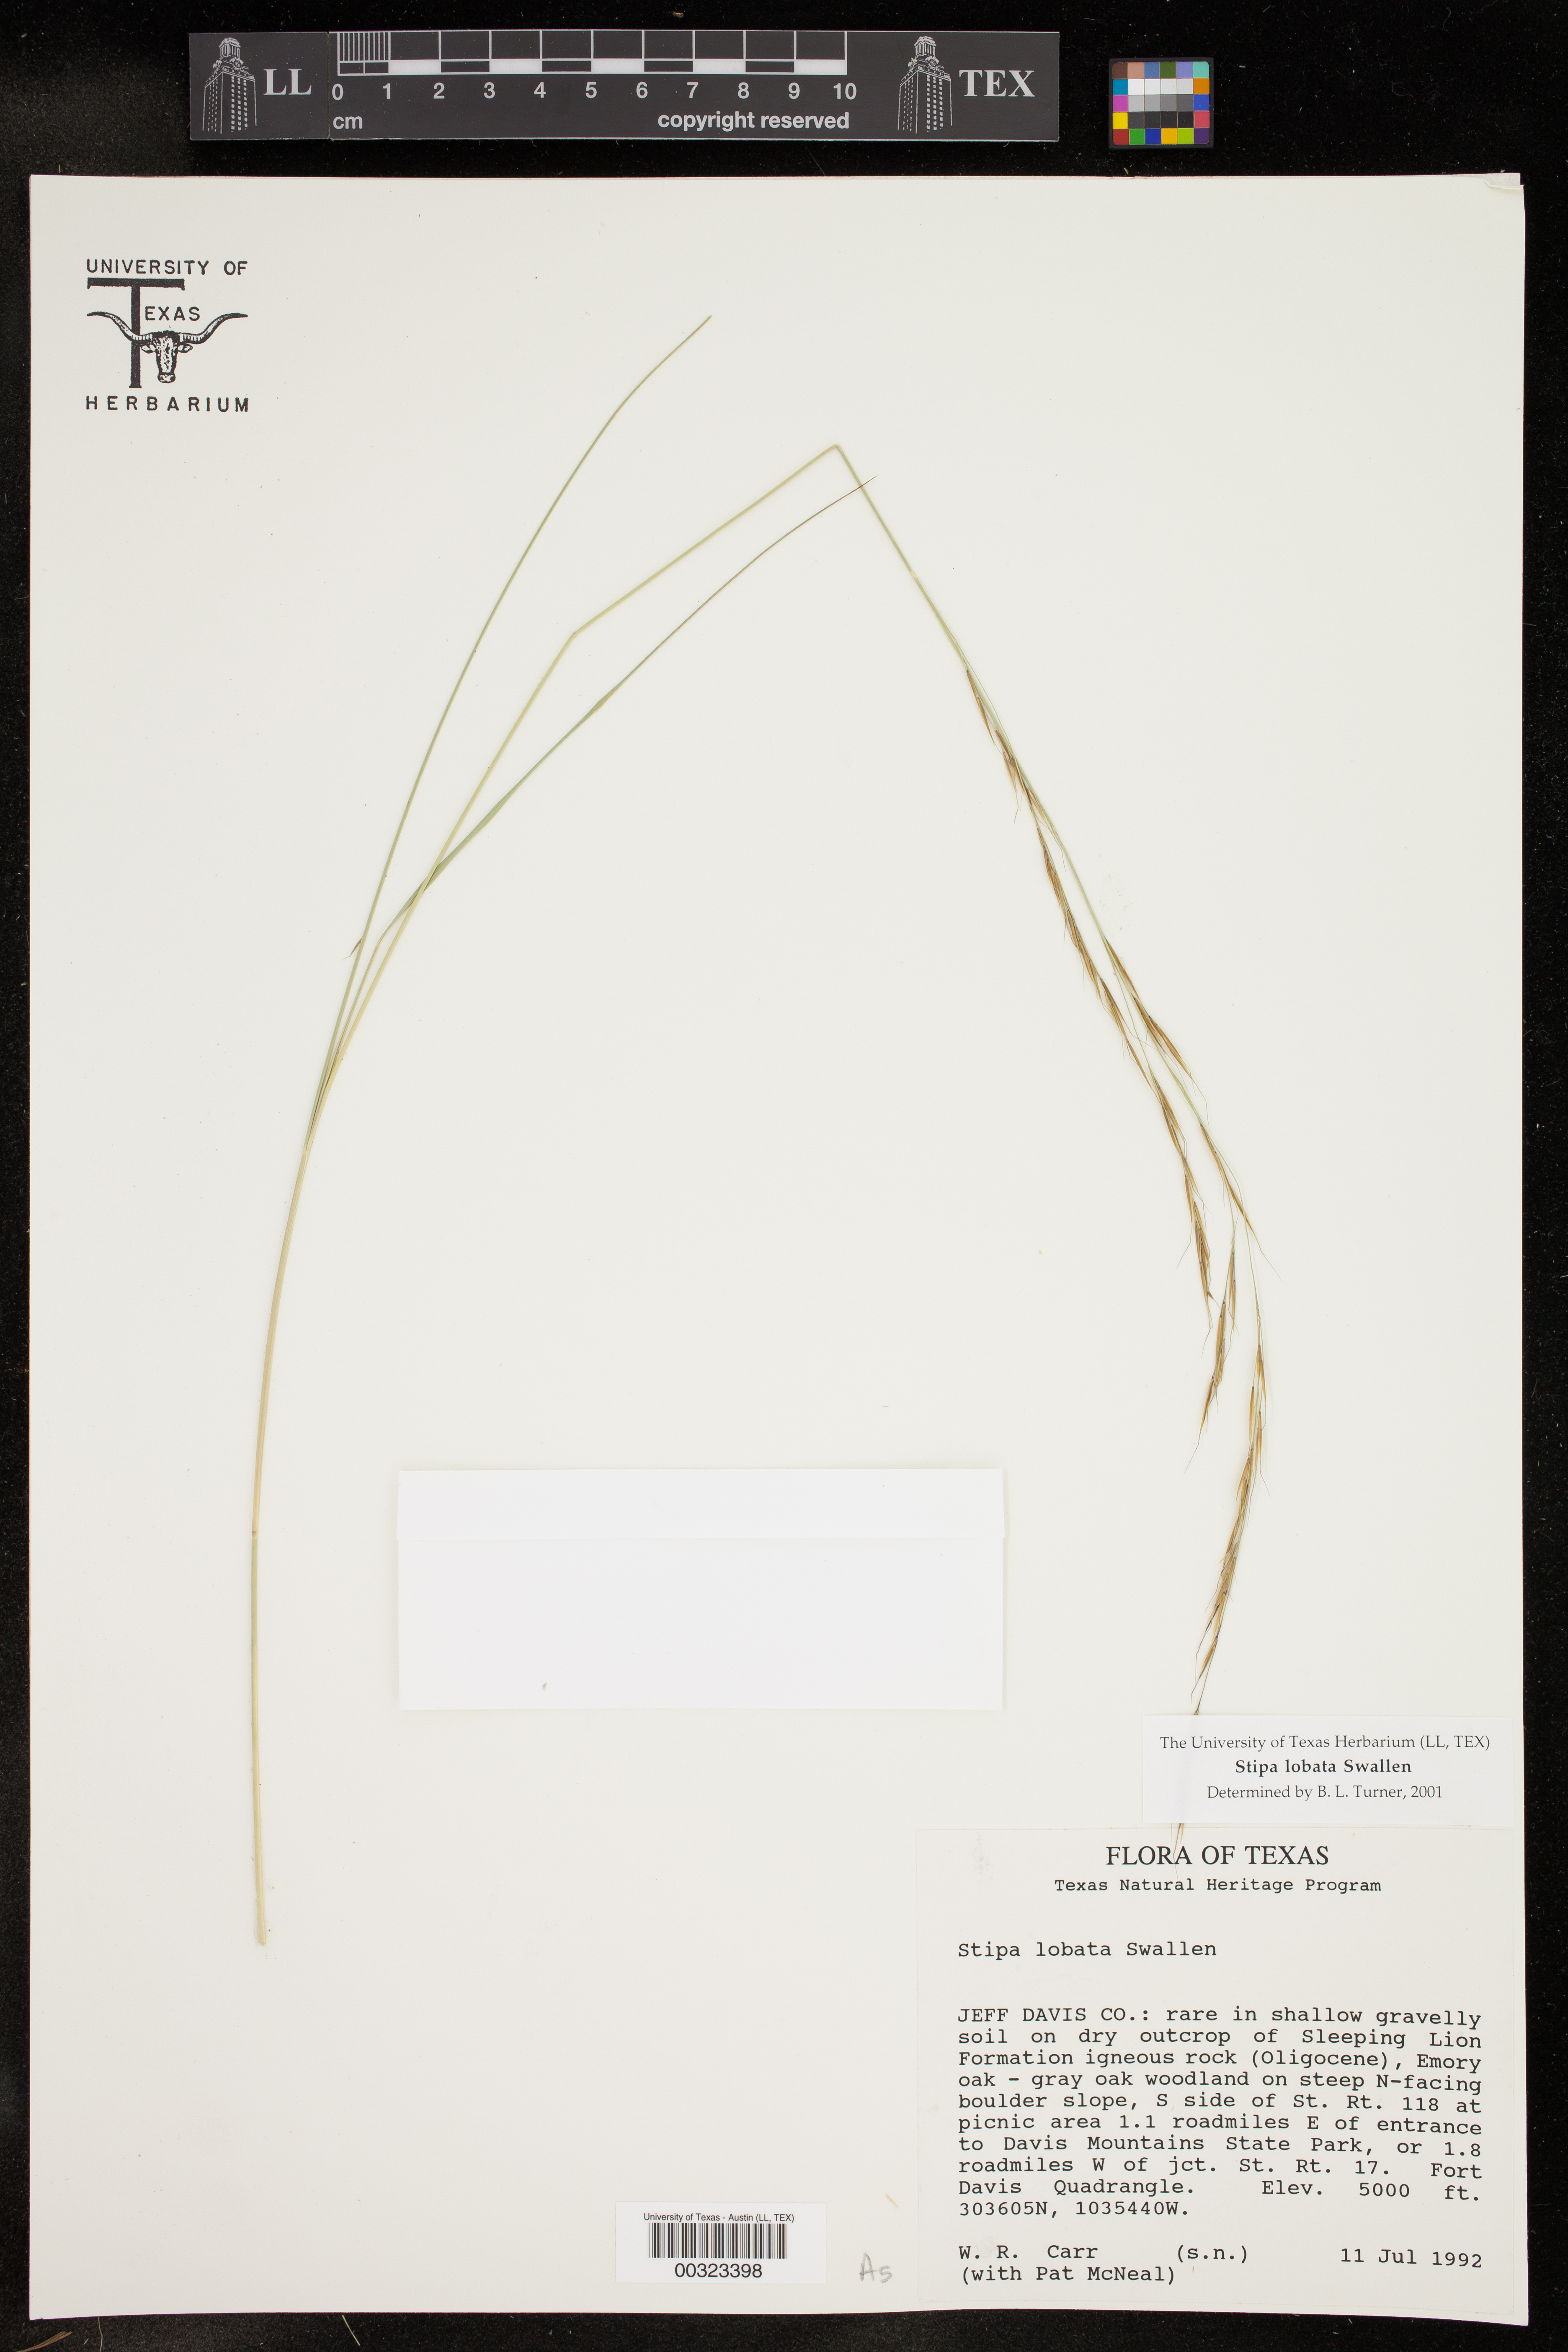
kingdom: Plantae
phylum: Tracheophyta
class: Liliopsida
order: Poales
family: Poaceae
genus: Eriocoma
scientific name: Eriocoma lobata
